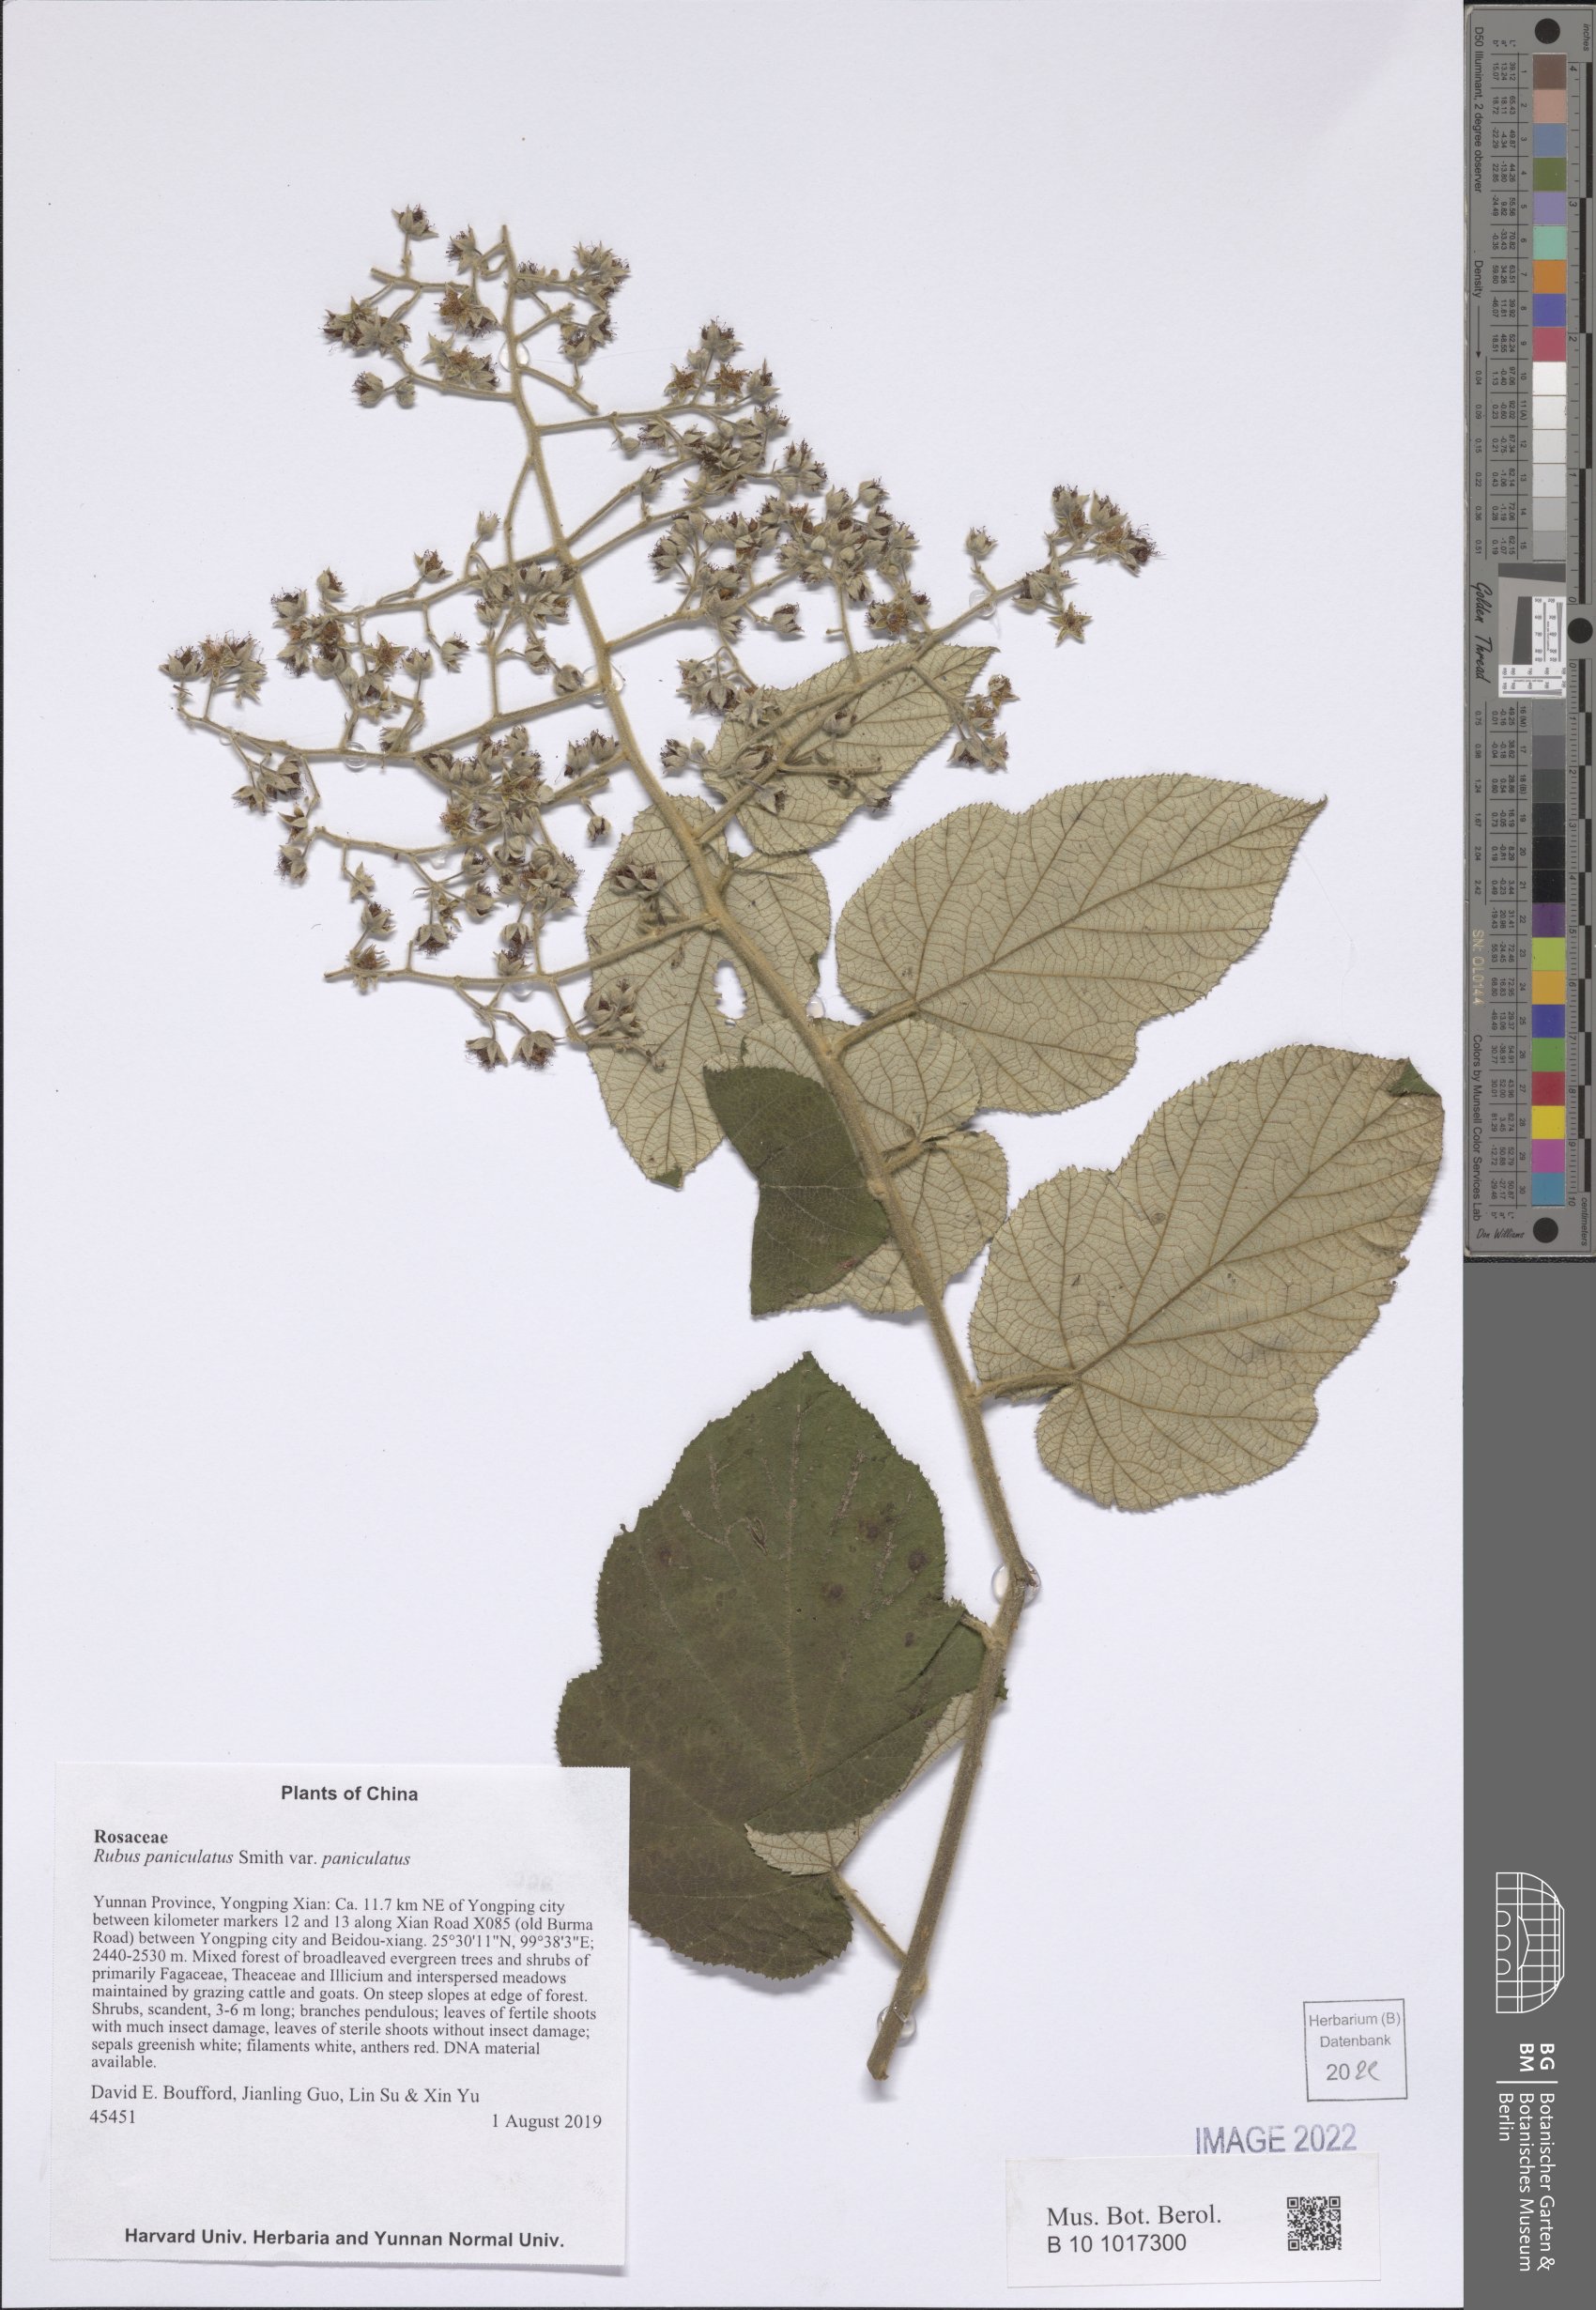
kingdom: Plantae
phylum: Tracheophyta
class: Magnoliopsida
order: Rosales
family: Rosaceae
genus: Rubus
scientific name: Rubus paniculatus
